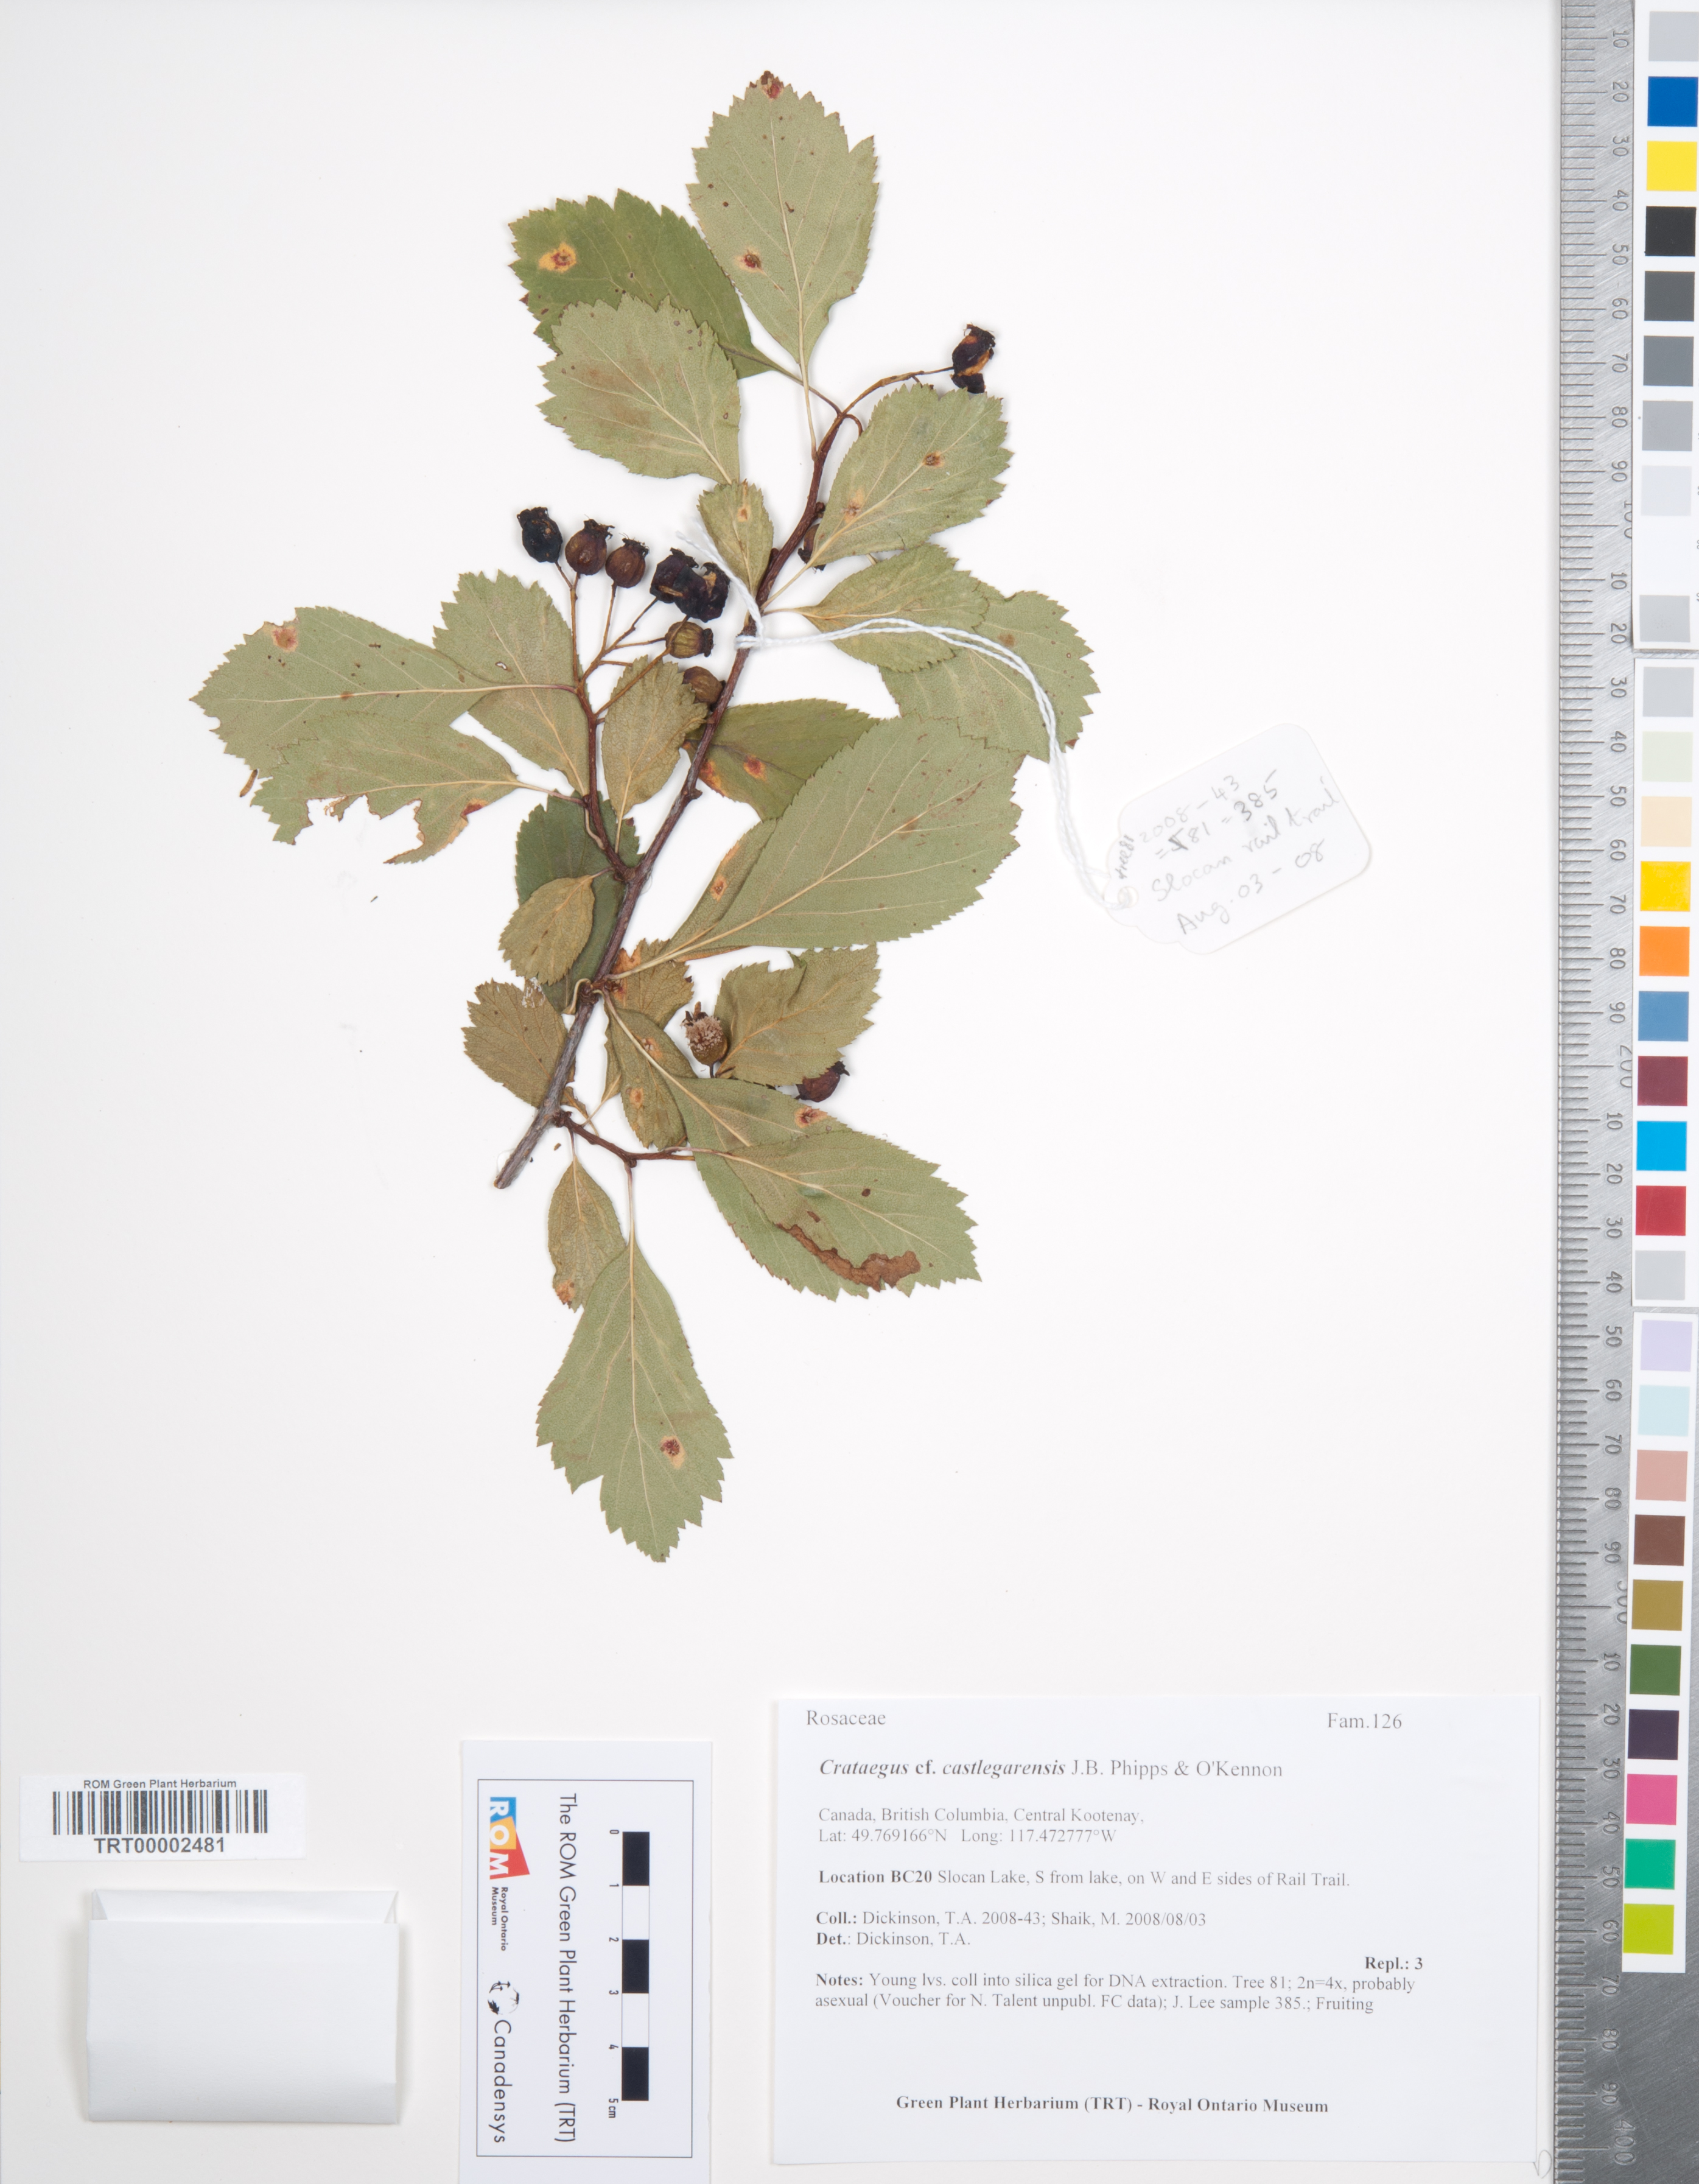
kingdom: Plantae
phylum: Tracheophyta
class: Magnoliopsida
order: Rosales
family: Rosaceae
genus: Crataegus
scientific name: Crataegus castlegarensis
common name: Castlegar hawthorn
